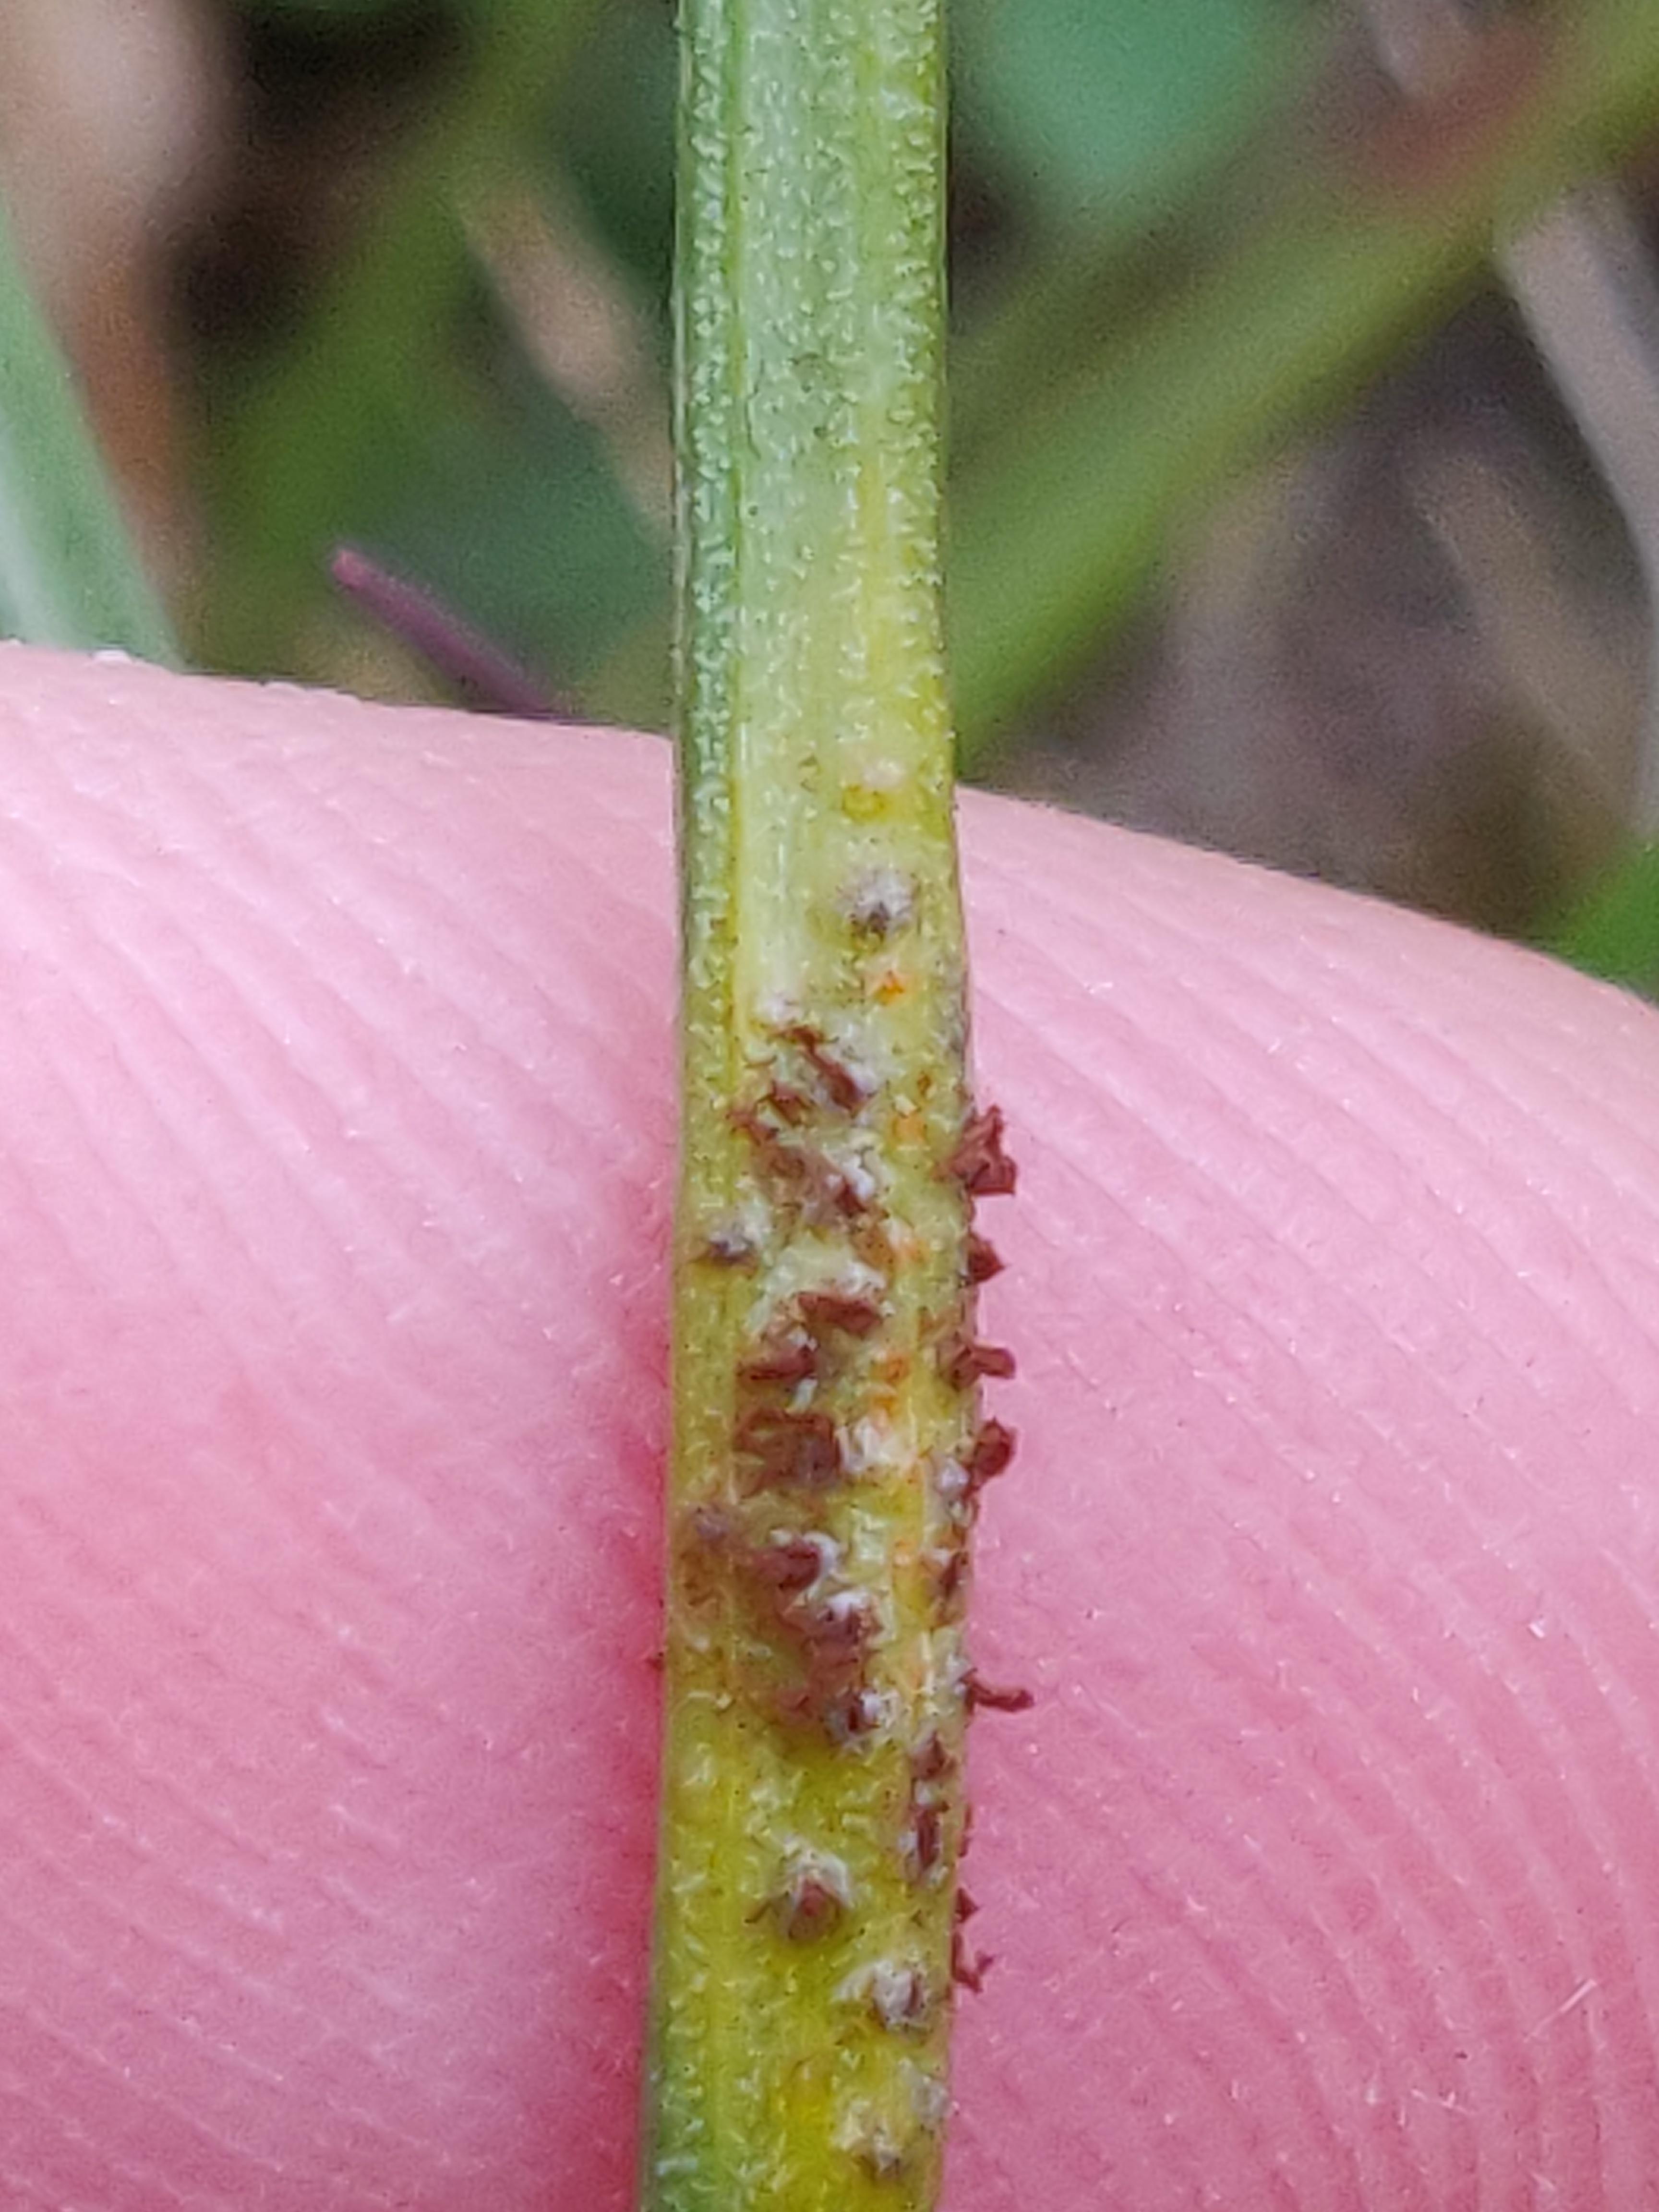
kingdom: Fungi
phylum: Basidiomycota
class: Pucciniomycetes
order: Pucciniales
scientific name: Pucciniales
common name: rustsvampeordenen
